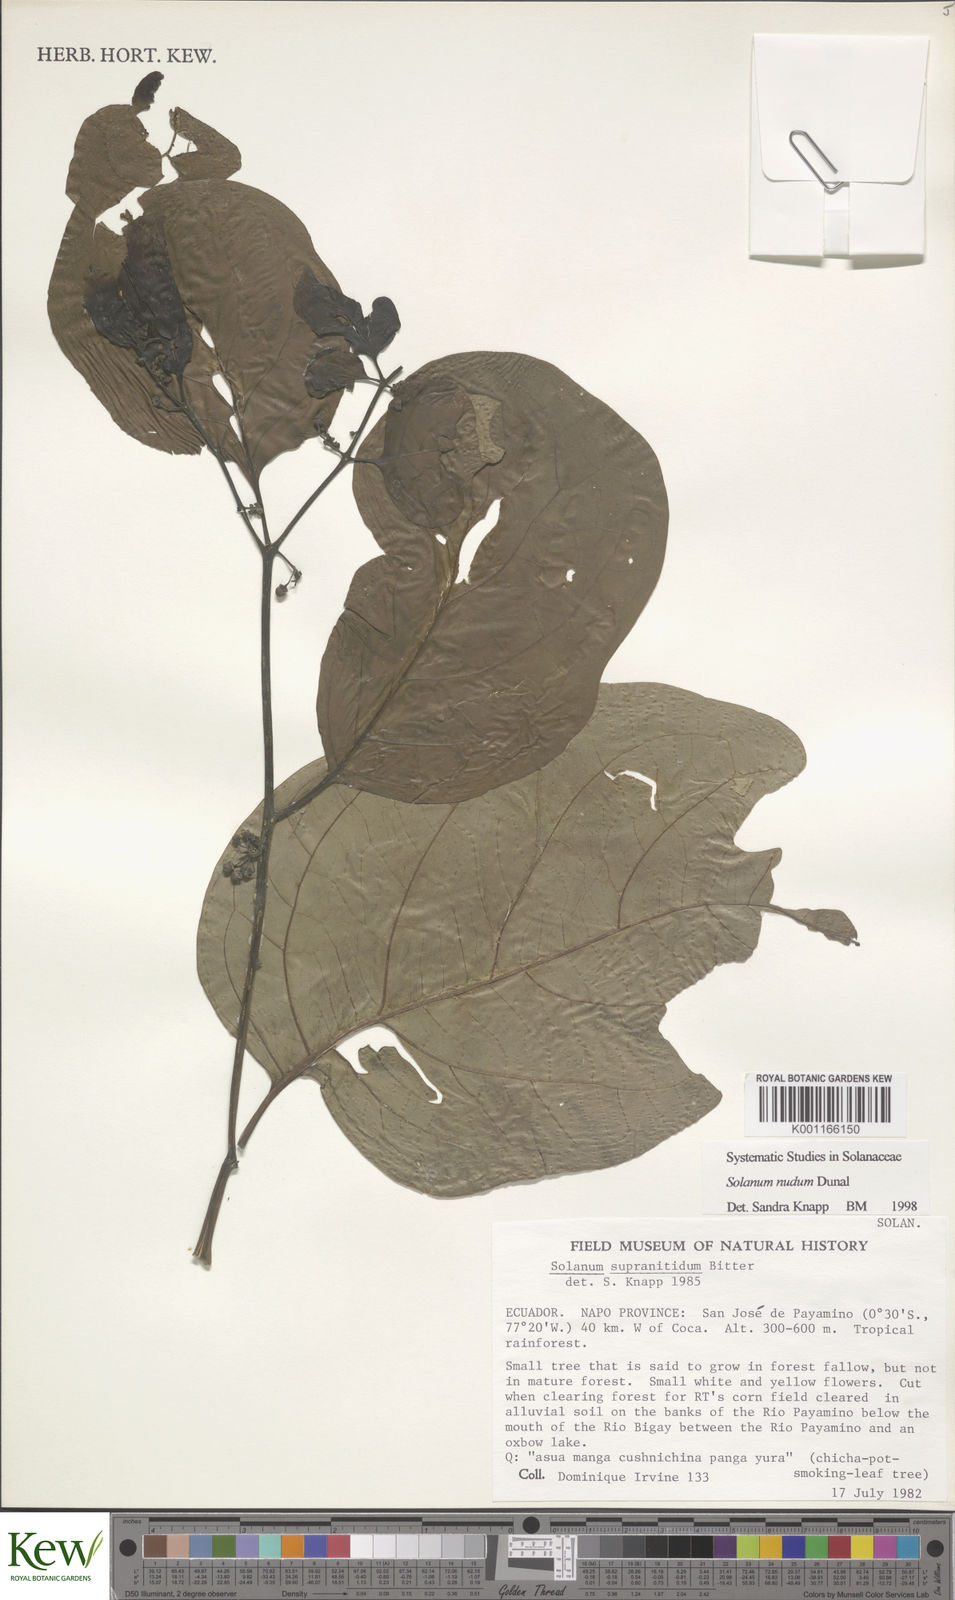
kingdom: Plantae
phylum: Tracheophyta
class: Magnoliopsida
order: Solanales
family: Solanaceae
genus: Solanum
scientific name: Solanum nudum
